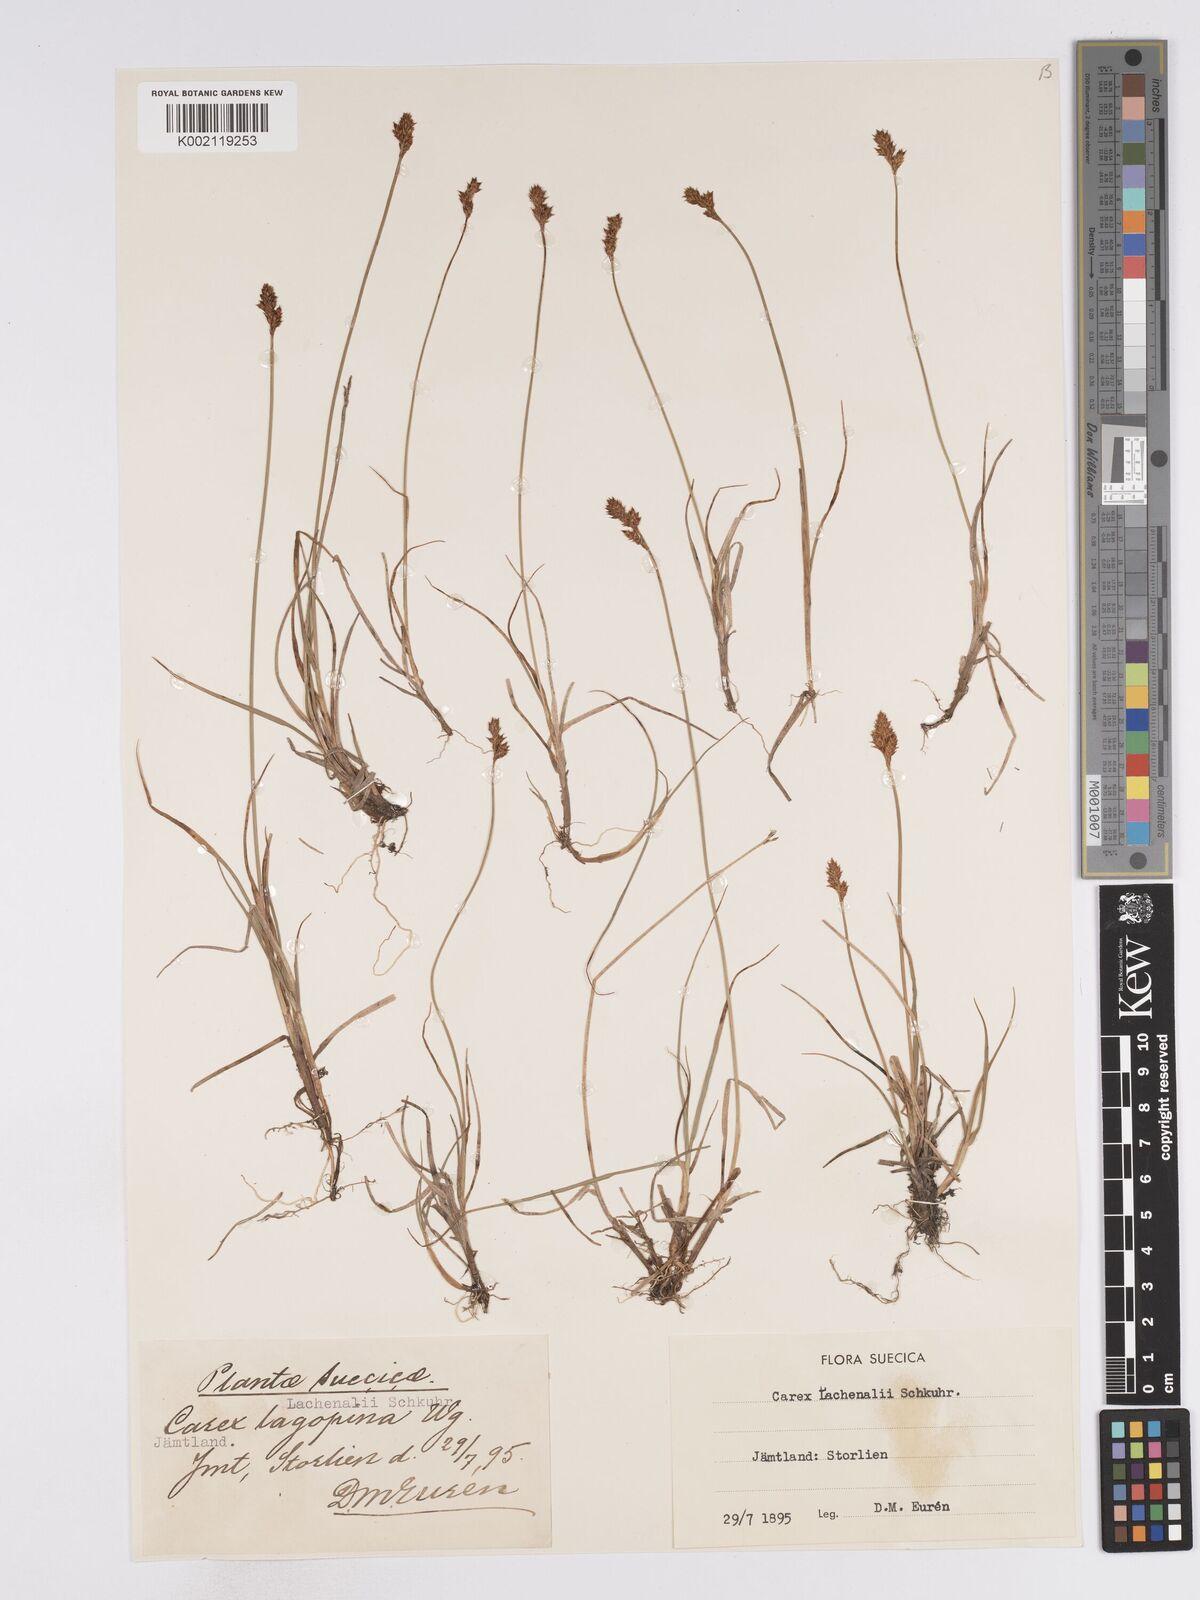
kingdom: Plantae
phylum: Tracheophyta
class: Liliopsida
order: Poales
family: Cyperaceae
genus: Carex
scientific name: Carex lachenalii
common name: Hare's-foot sedge
